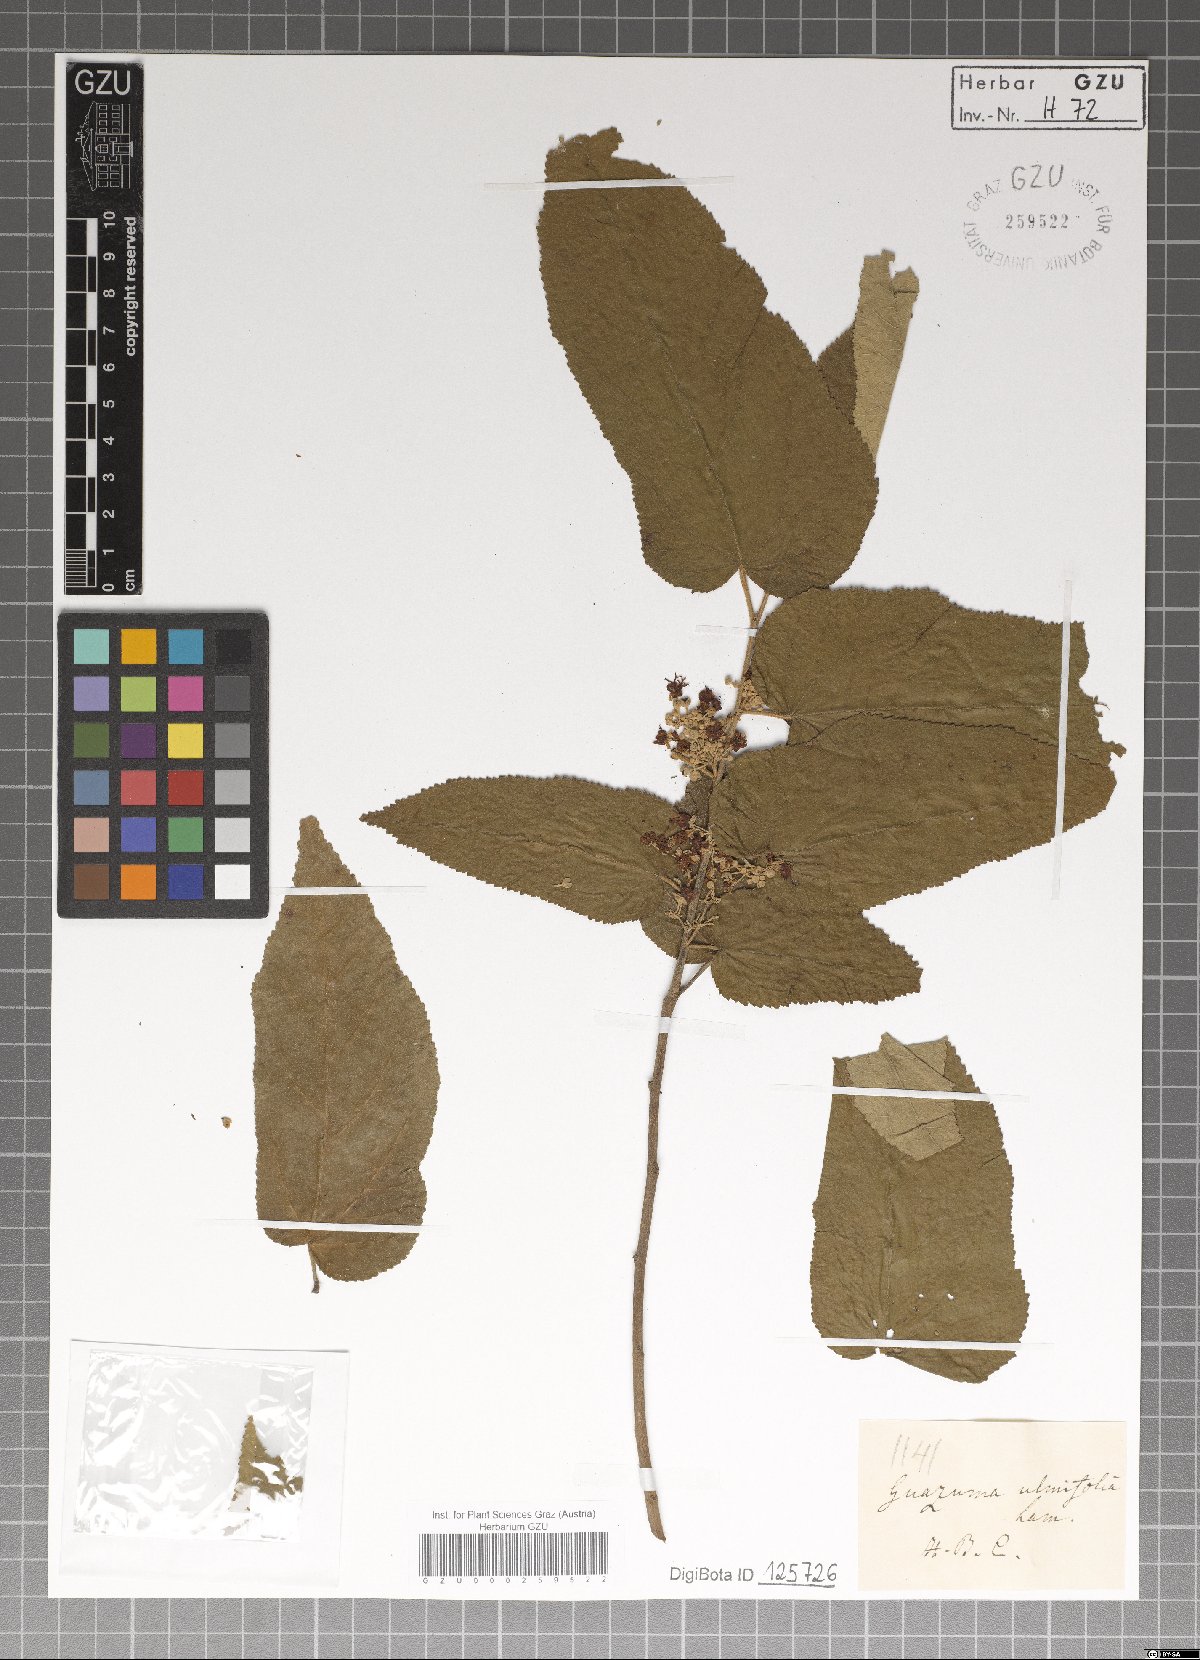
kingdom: Plantae
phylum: Tracheophyta
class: Magnoliopsida
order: Malvales
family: Malvaceae
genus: Guazuma
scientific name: Guazuma ulmifolia
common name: Bastard-cedar
